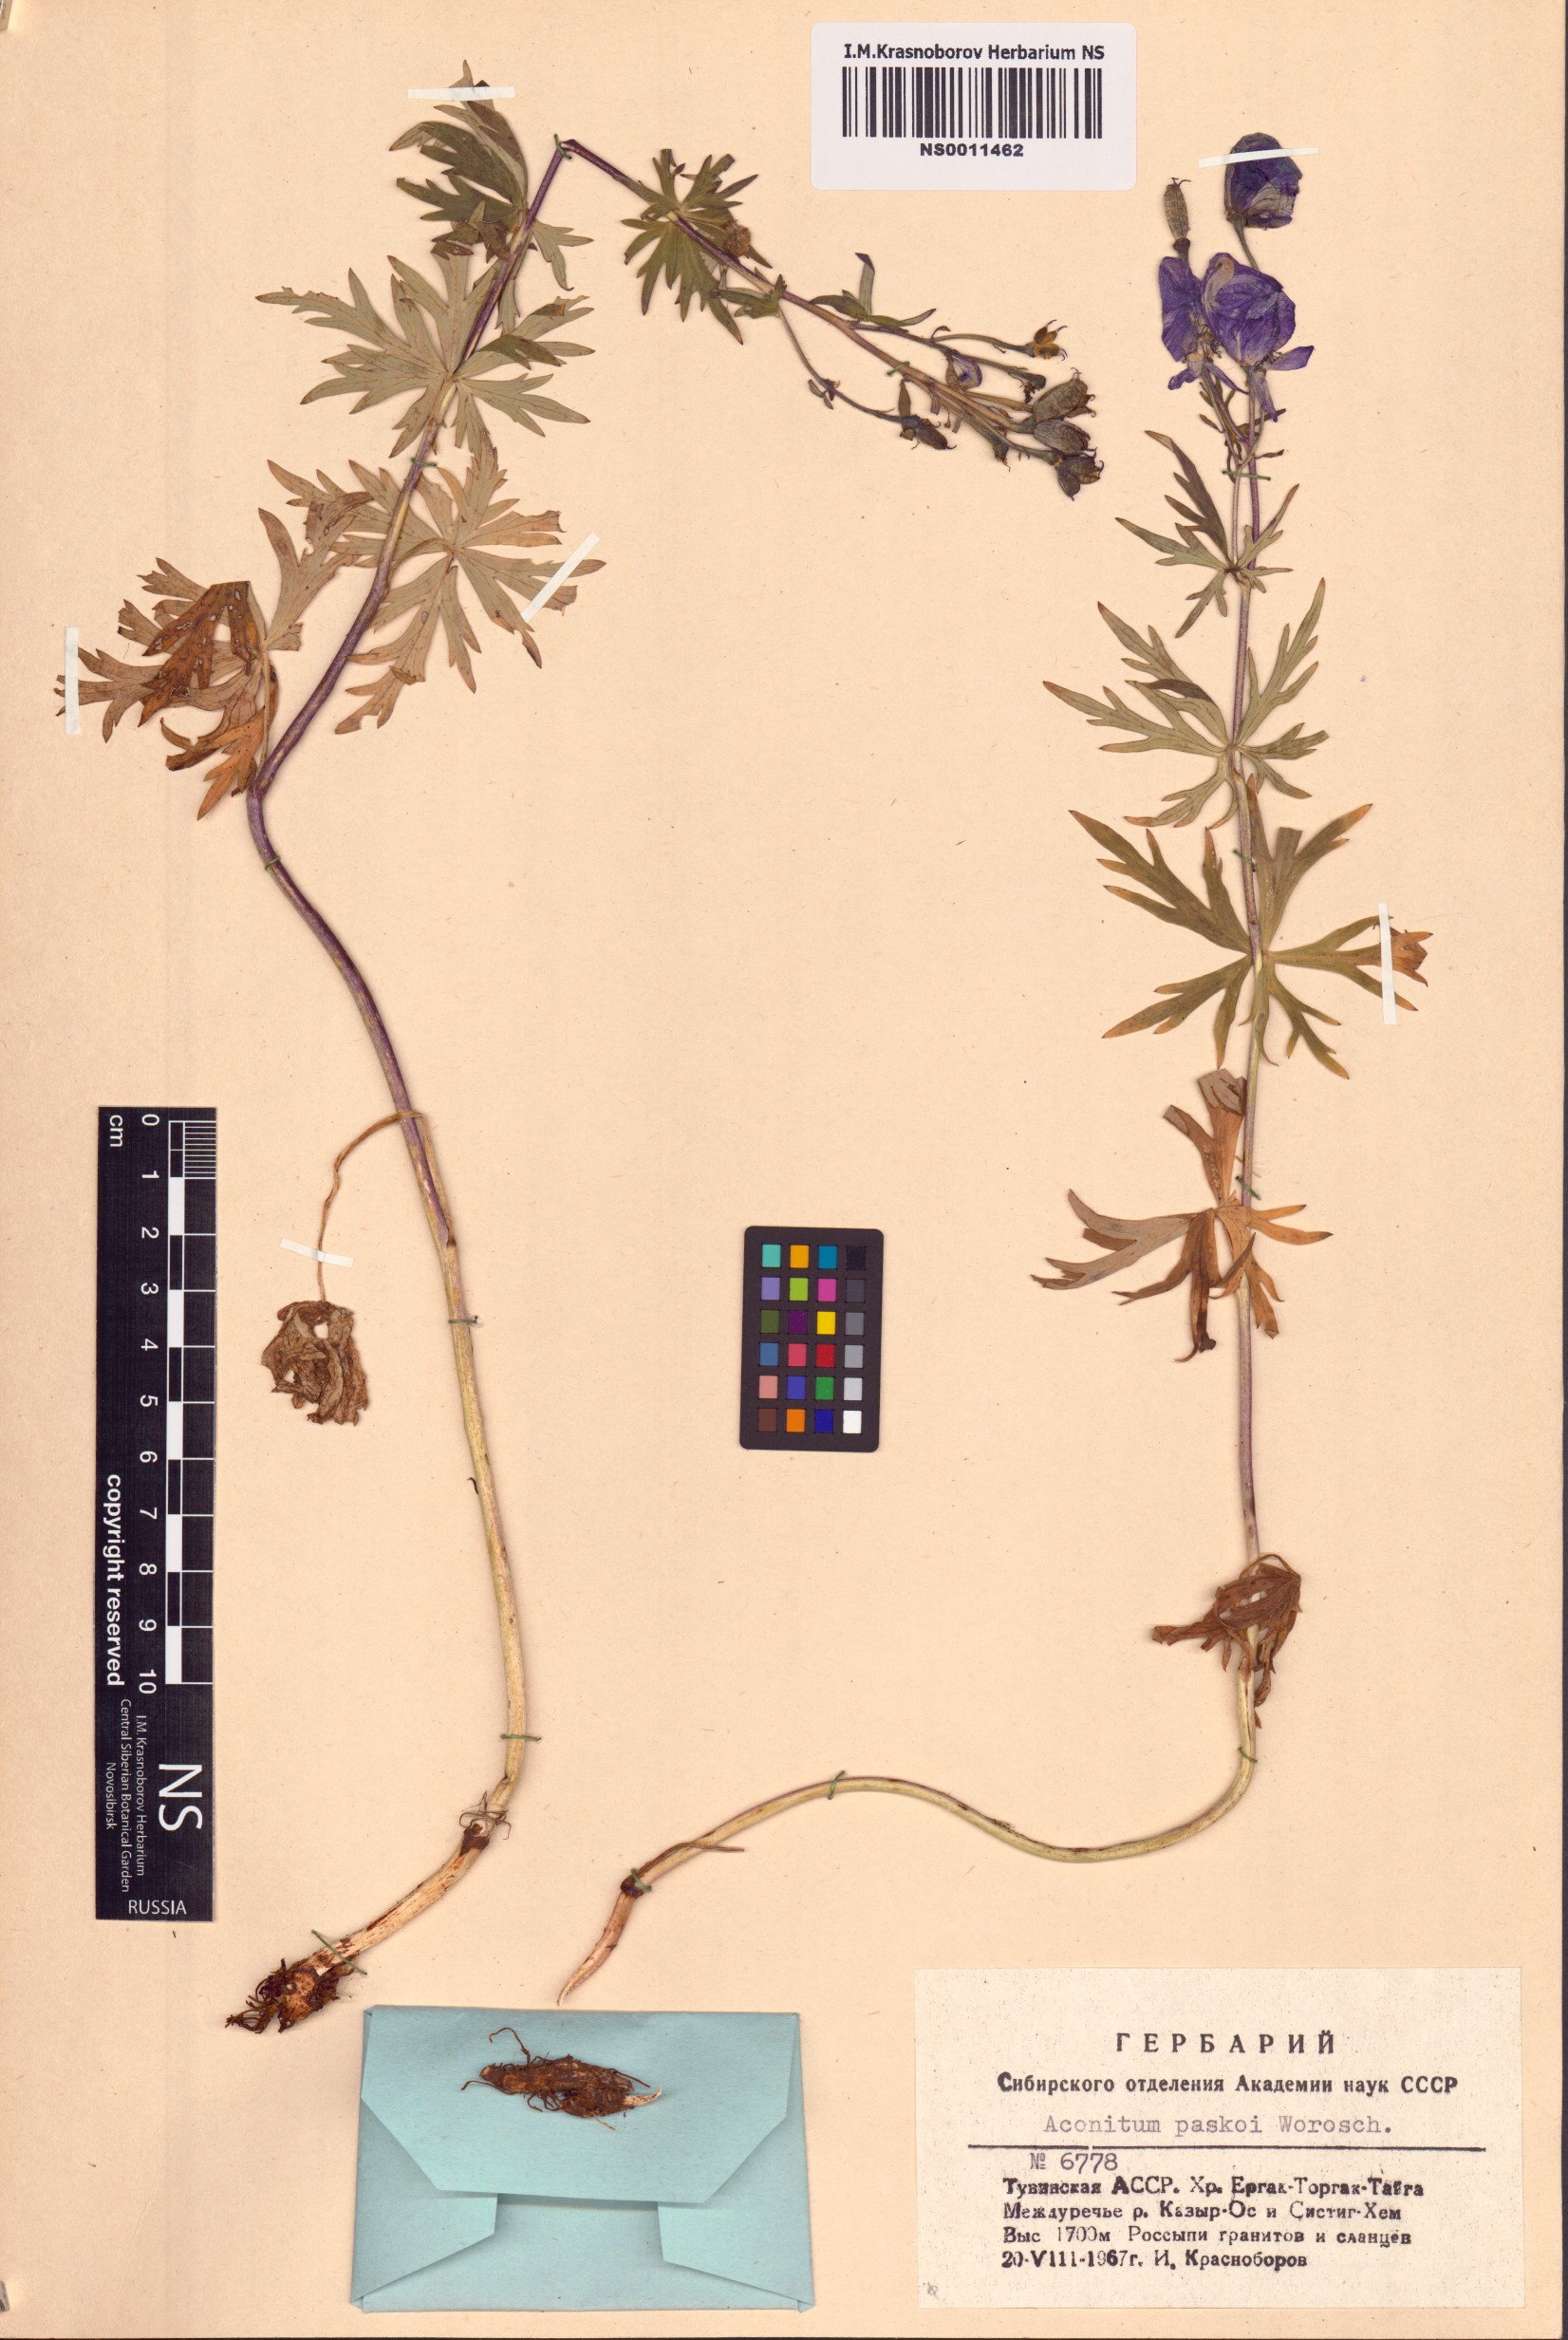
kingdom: Plantae
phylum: Tracheophyta
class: Magnoliopsida
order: Ranunculales
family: Ranunculaceae
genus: Aconitum
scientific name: Aconitum pascoi
